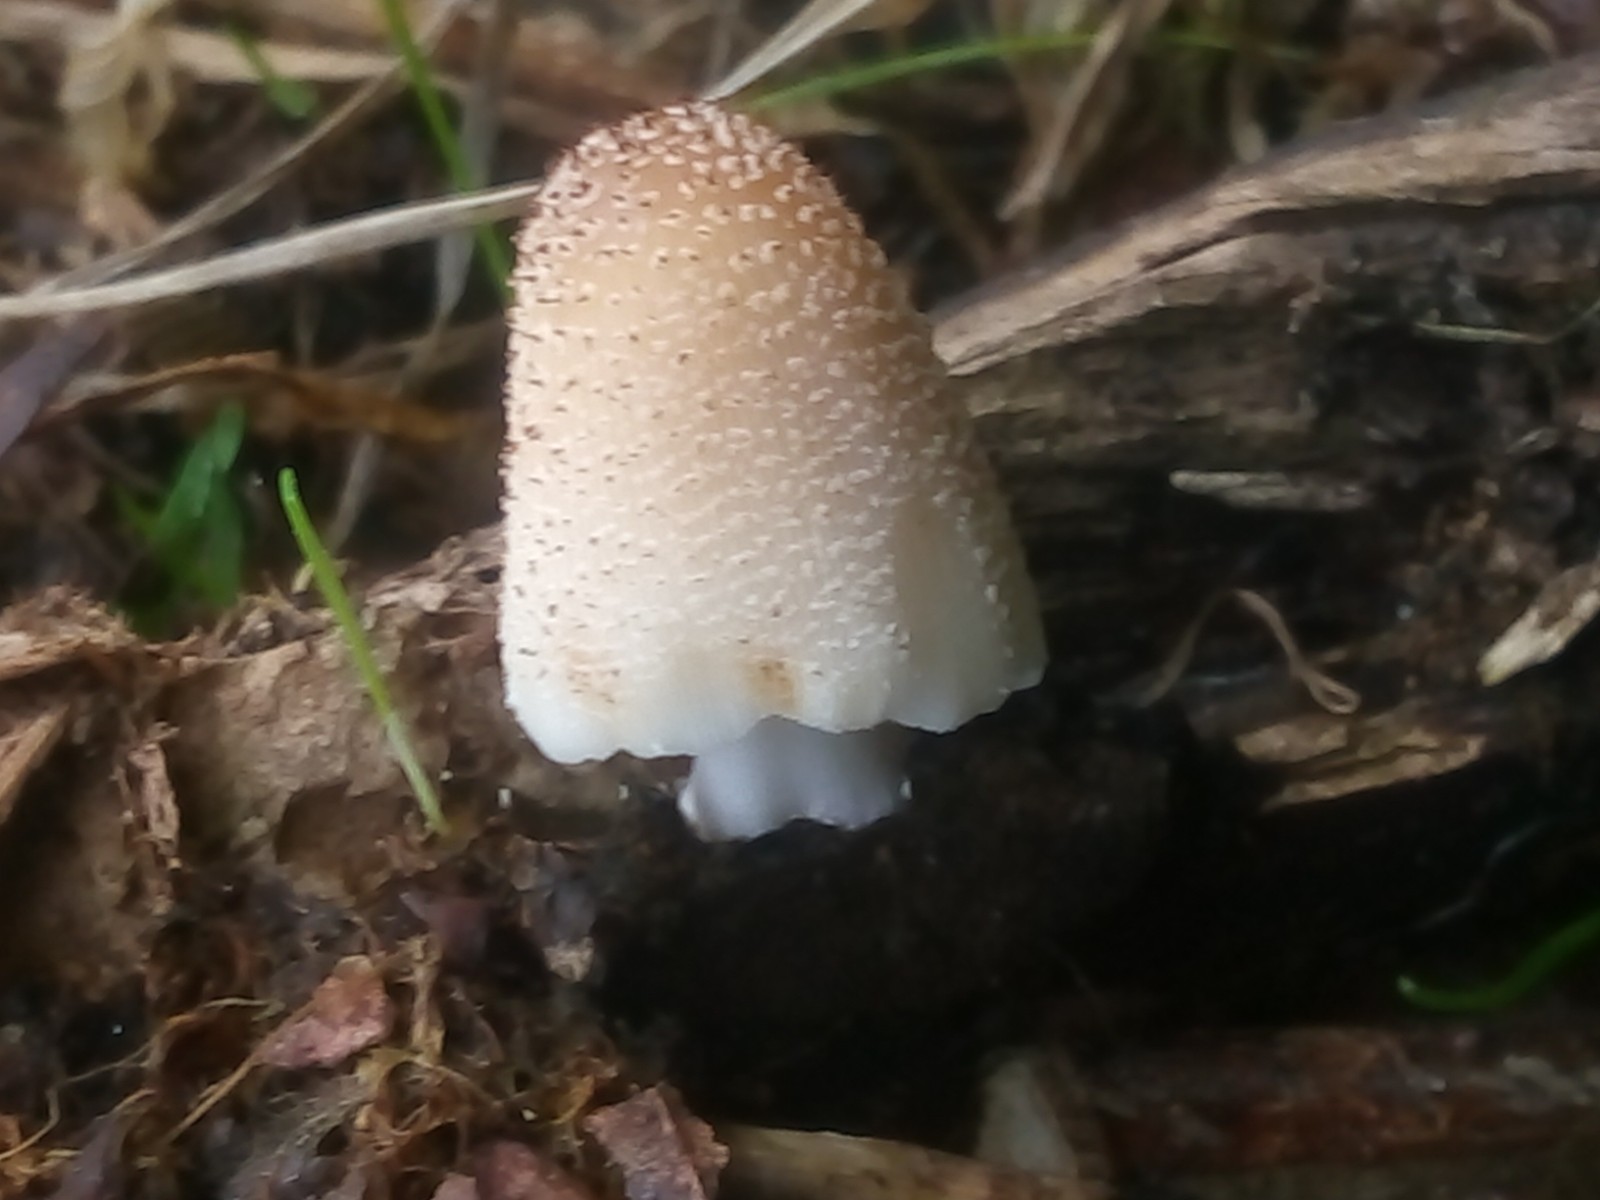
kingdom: Fungi
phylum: Basidiomycota
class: Agaricomycetes
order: Agaricales
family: Psathyrellaceae
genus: Coprinellus
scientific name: Coprinellus xanthothrix
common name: gultrådet blækhat
